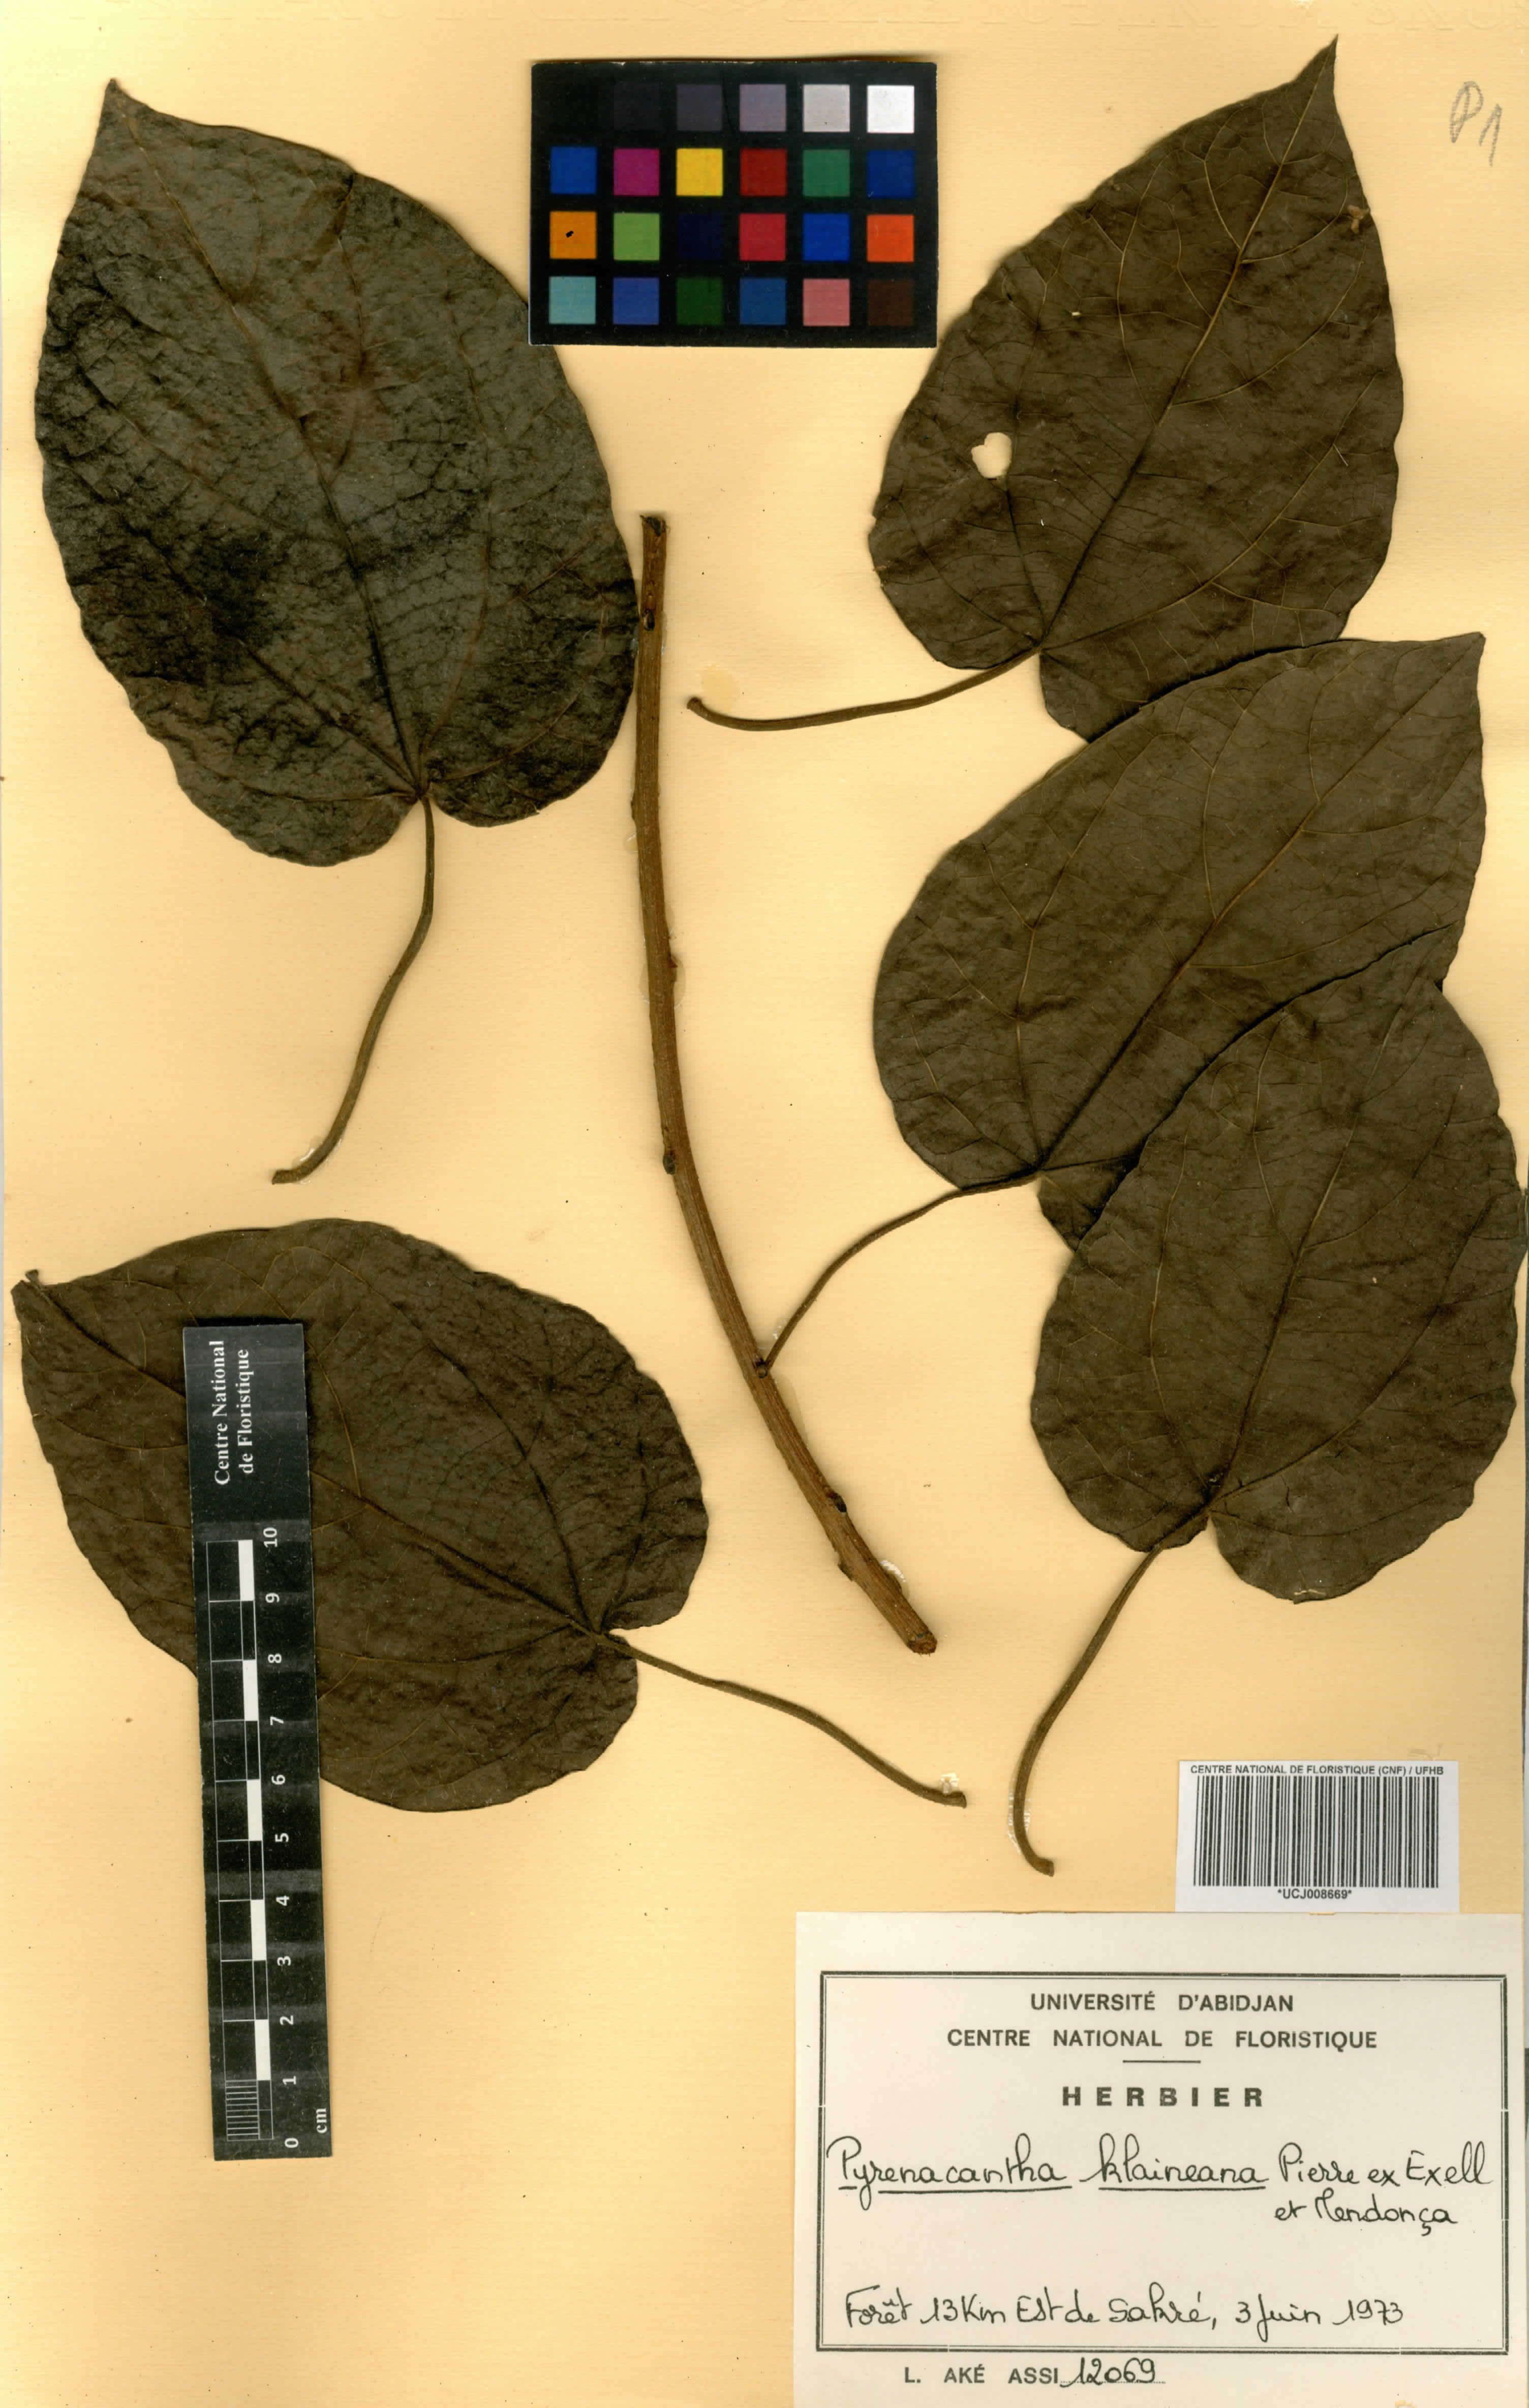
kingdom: Plantae
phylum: Tracheophyta
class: Magnoliopsida
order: Icacinales
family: Icacinaceae
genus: Pyrenacantha
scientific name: Pyrenacantha klaineana
